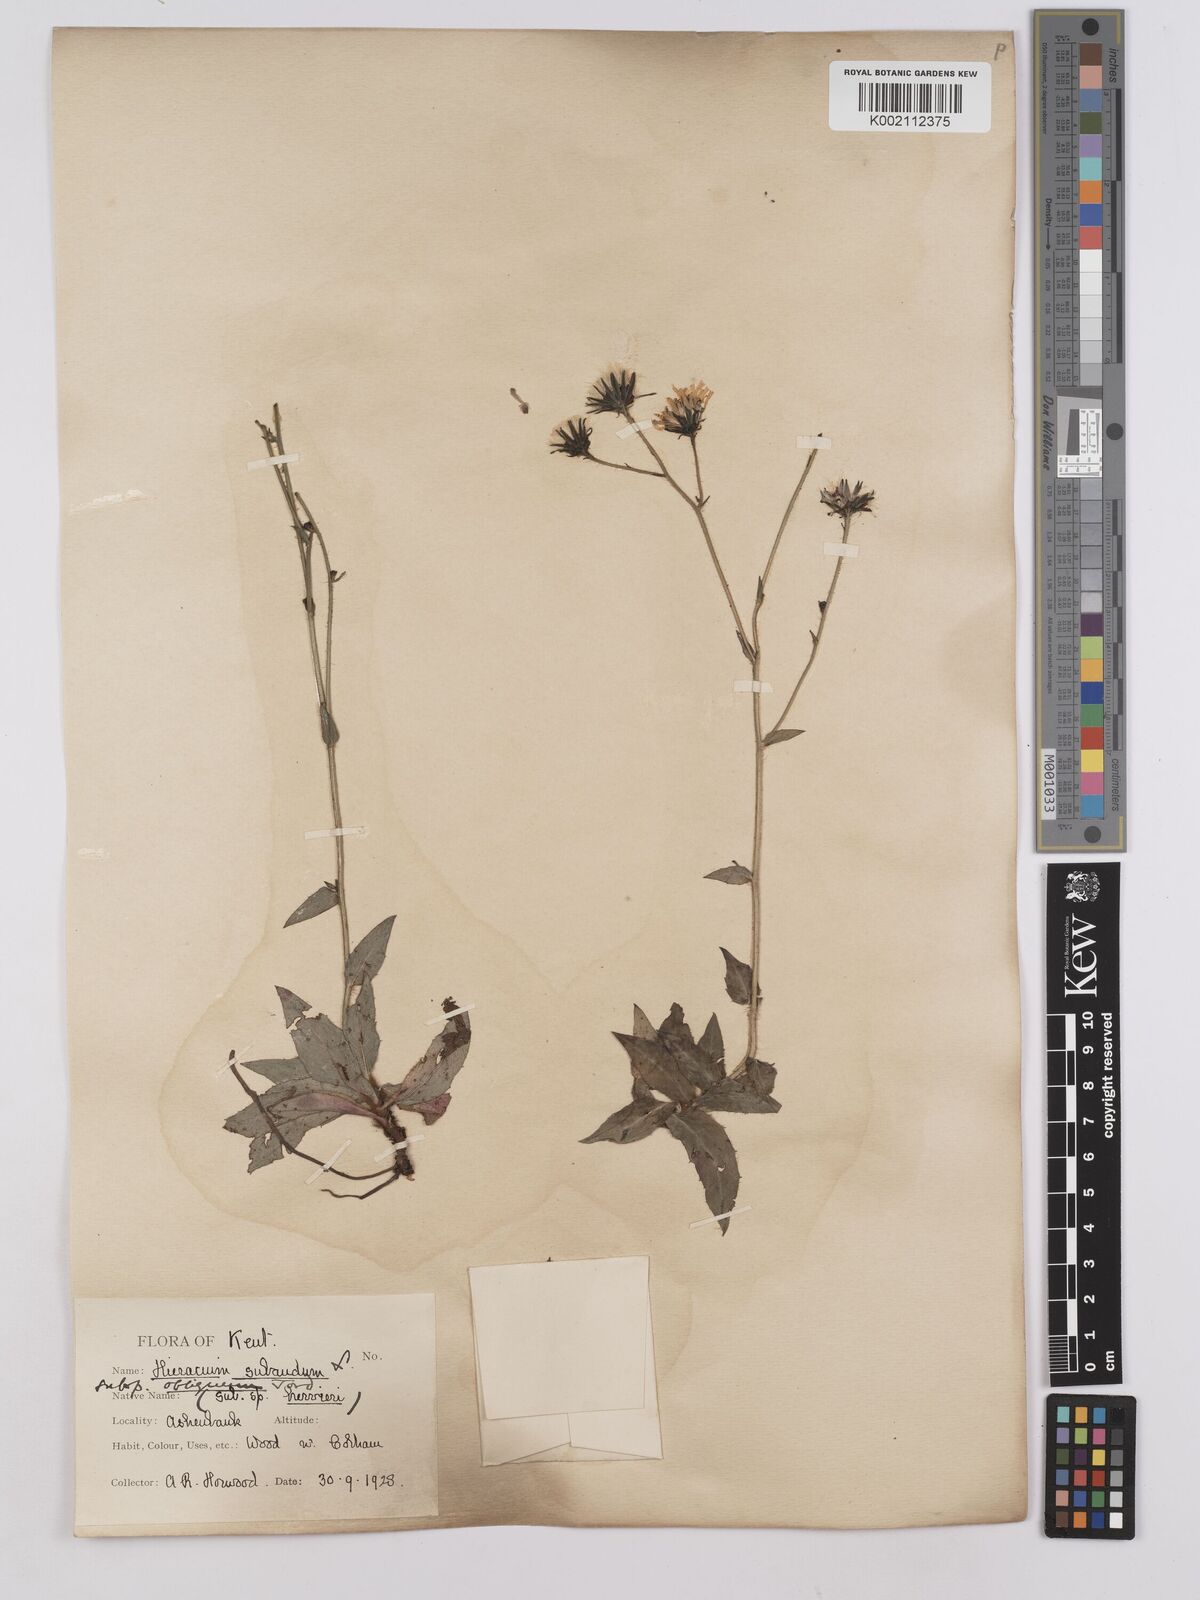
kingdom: Plantae
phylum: Tracheophyta
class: Magnoliopsida
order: Asterales
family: Asteraceae
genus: Hieracium
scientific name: Hieracium sabaudum
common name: New england hawkweed
